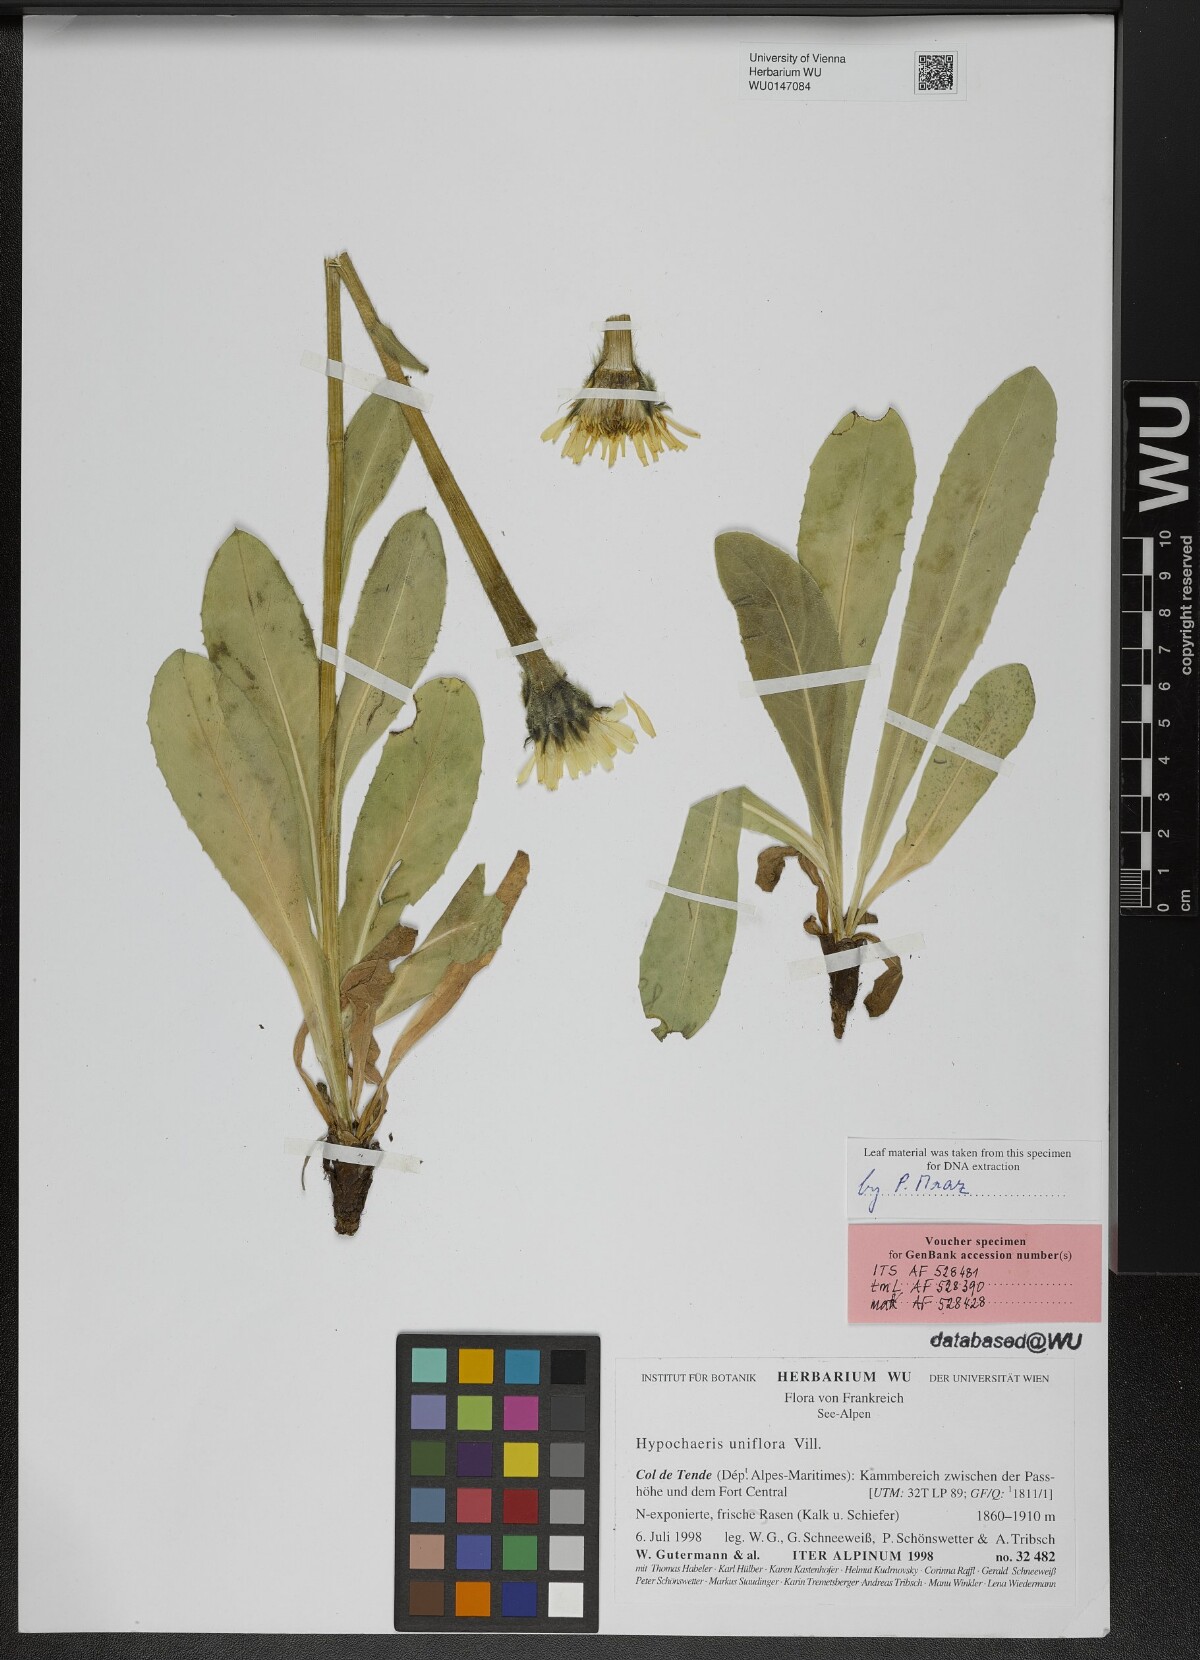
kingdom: Plantae
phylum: Tracheophyta
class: Magnoliopsida
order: Asterales
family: Asteraceae
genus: Trommsdorffia
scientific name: Trommsdorffia uniflora
